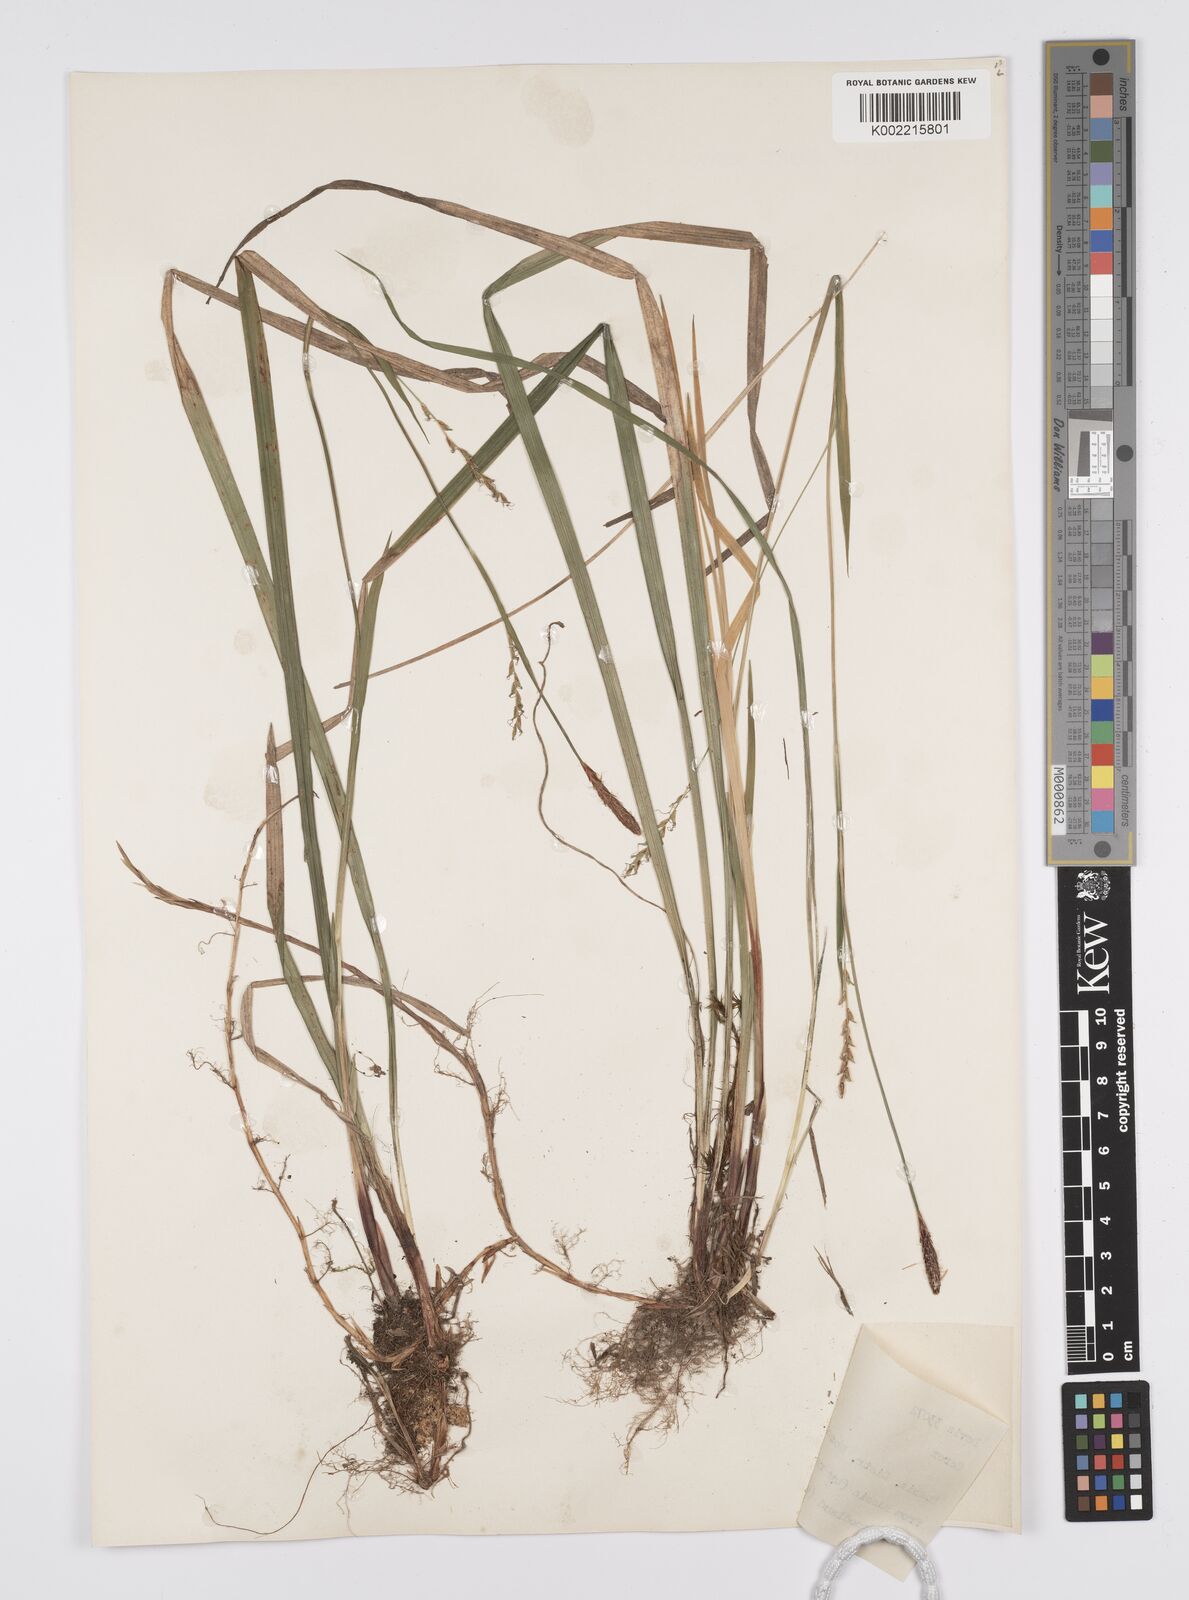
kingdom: Plantae
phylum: Tracheophyta
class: Liliopsida
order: Poales
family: Cyperaceae
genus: Carex
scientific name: Carex
